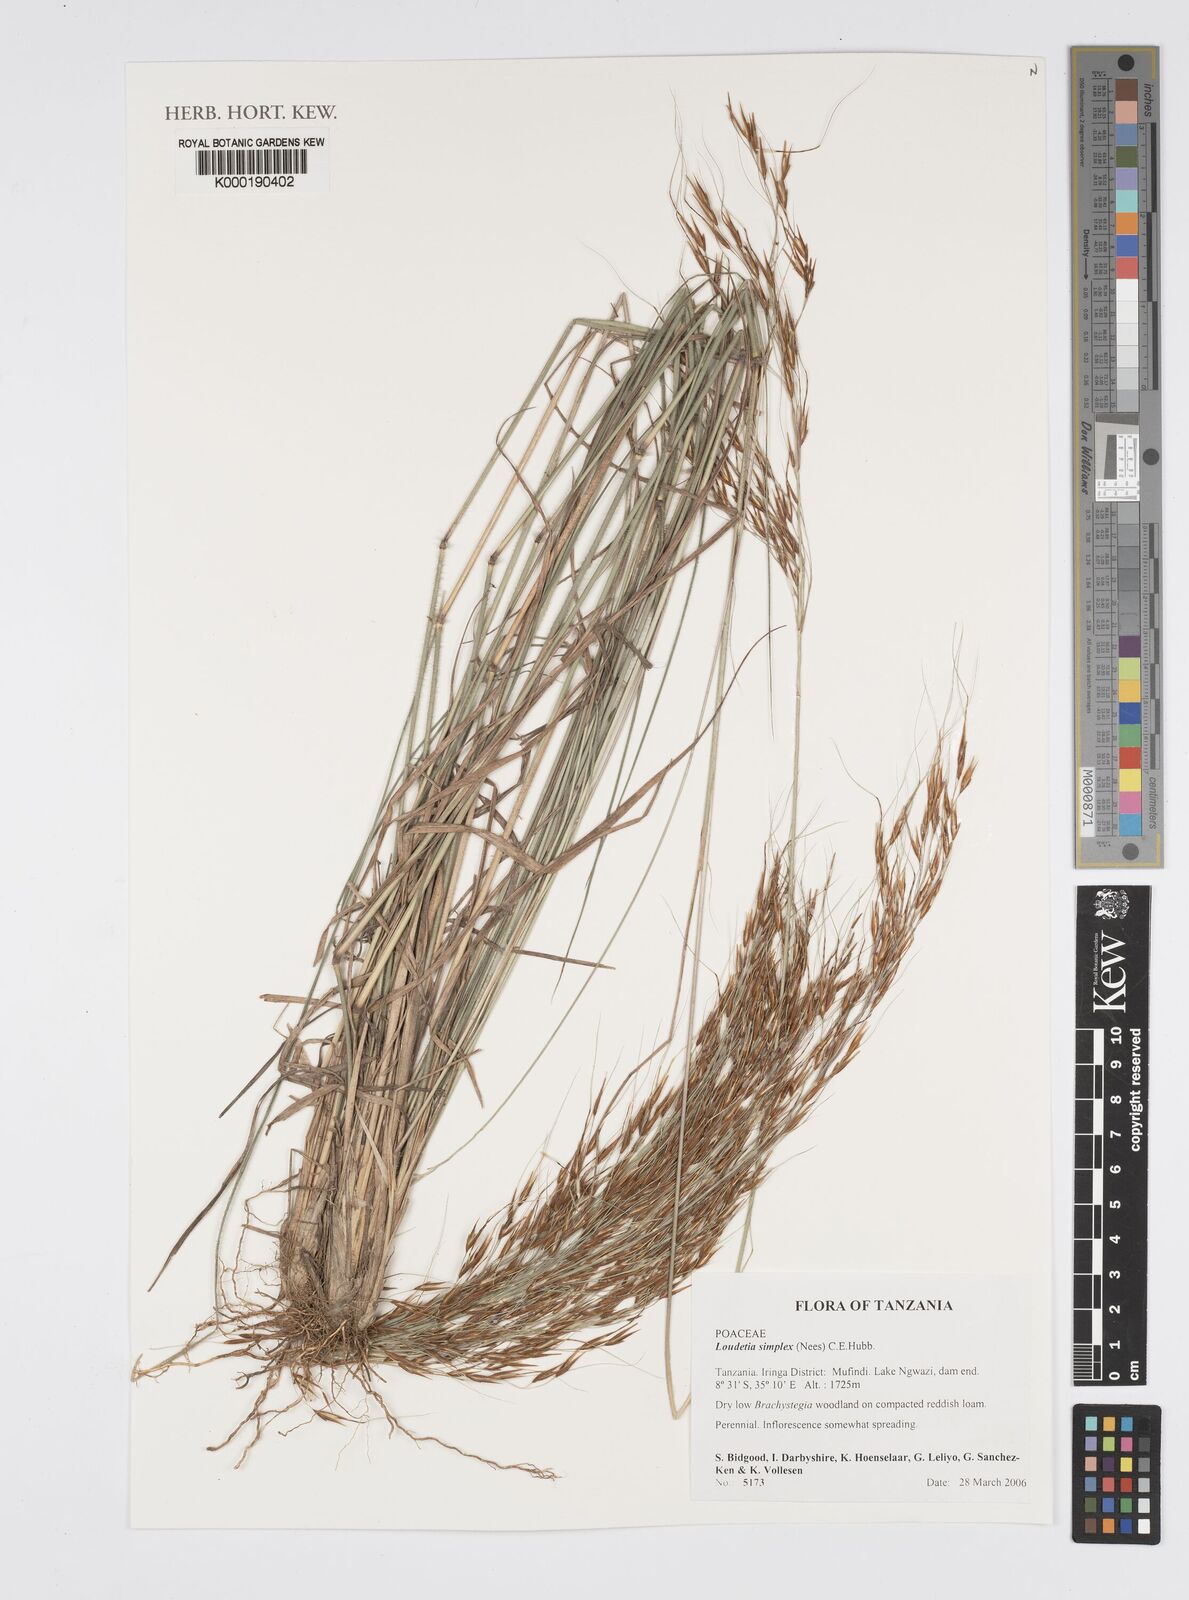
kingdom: Plantae
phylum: Tracheophyta
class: Liliopsida
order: Poales
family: Poaceae
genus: Loudetia
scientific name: Loudetia simplex
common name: Common russet grass
